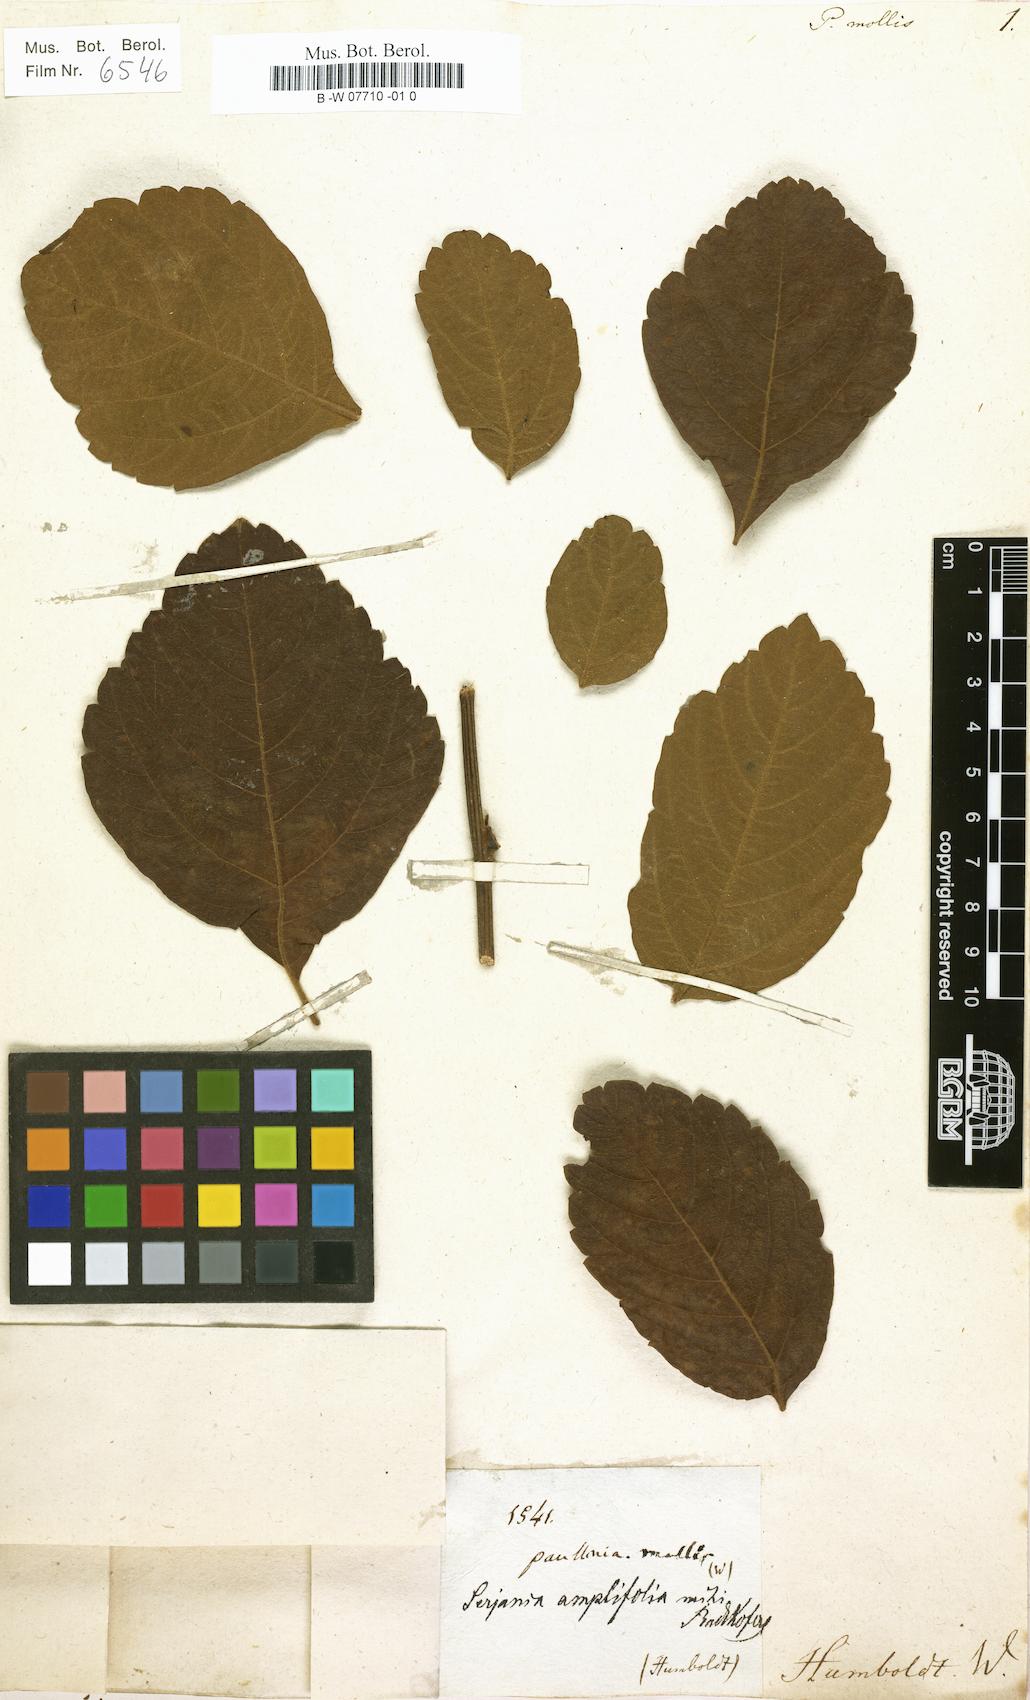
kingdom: Plantae
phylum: Tracheophyta
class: Magnoliopsida
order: Sapindales
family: Sapindaceae
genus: Serjania
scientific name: Serjania amplifolia
